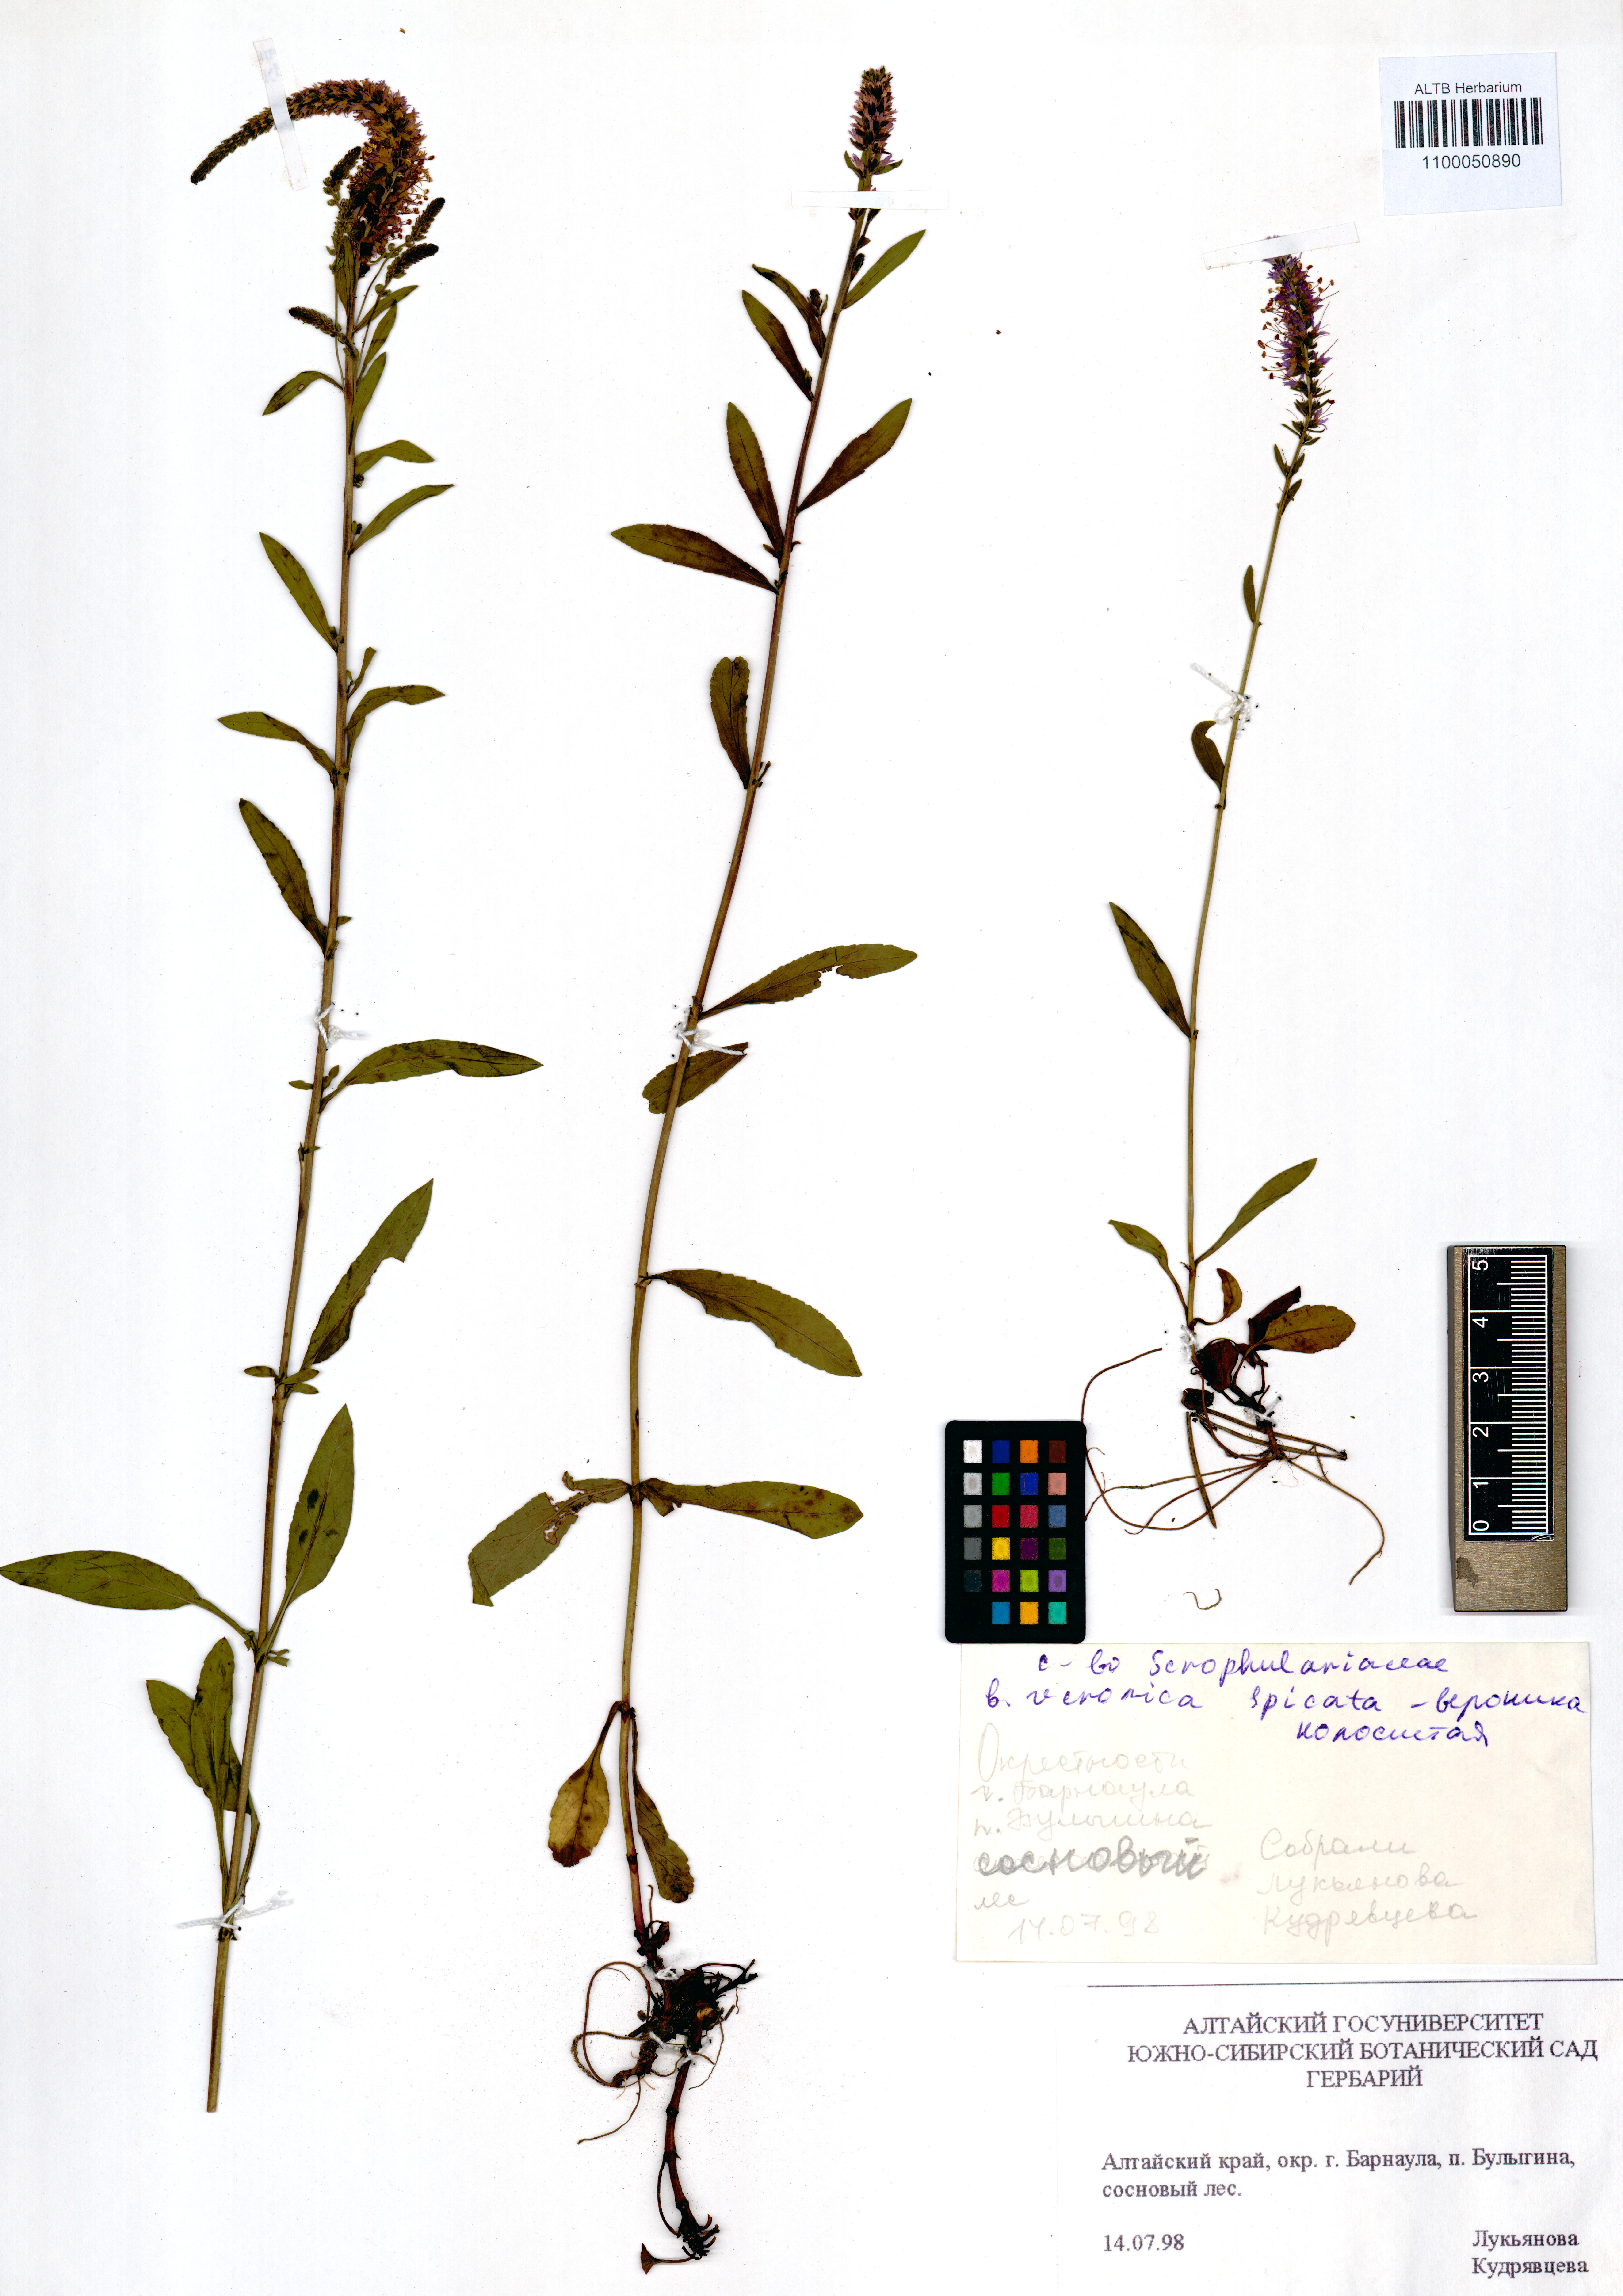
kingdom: Plantae
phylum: Tracheophyta
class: Magnoliopsida
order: Lamiales
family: Plantaginaceae
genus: Veronica
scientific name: Veronica spicata
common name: Spiked speedwell
